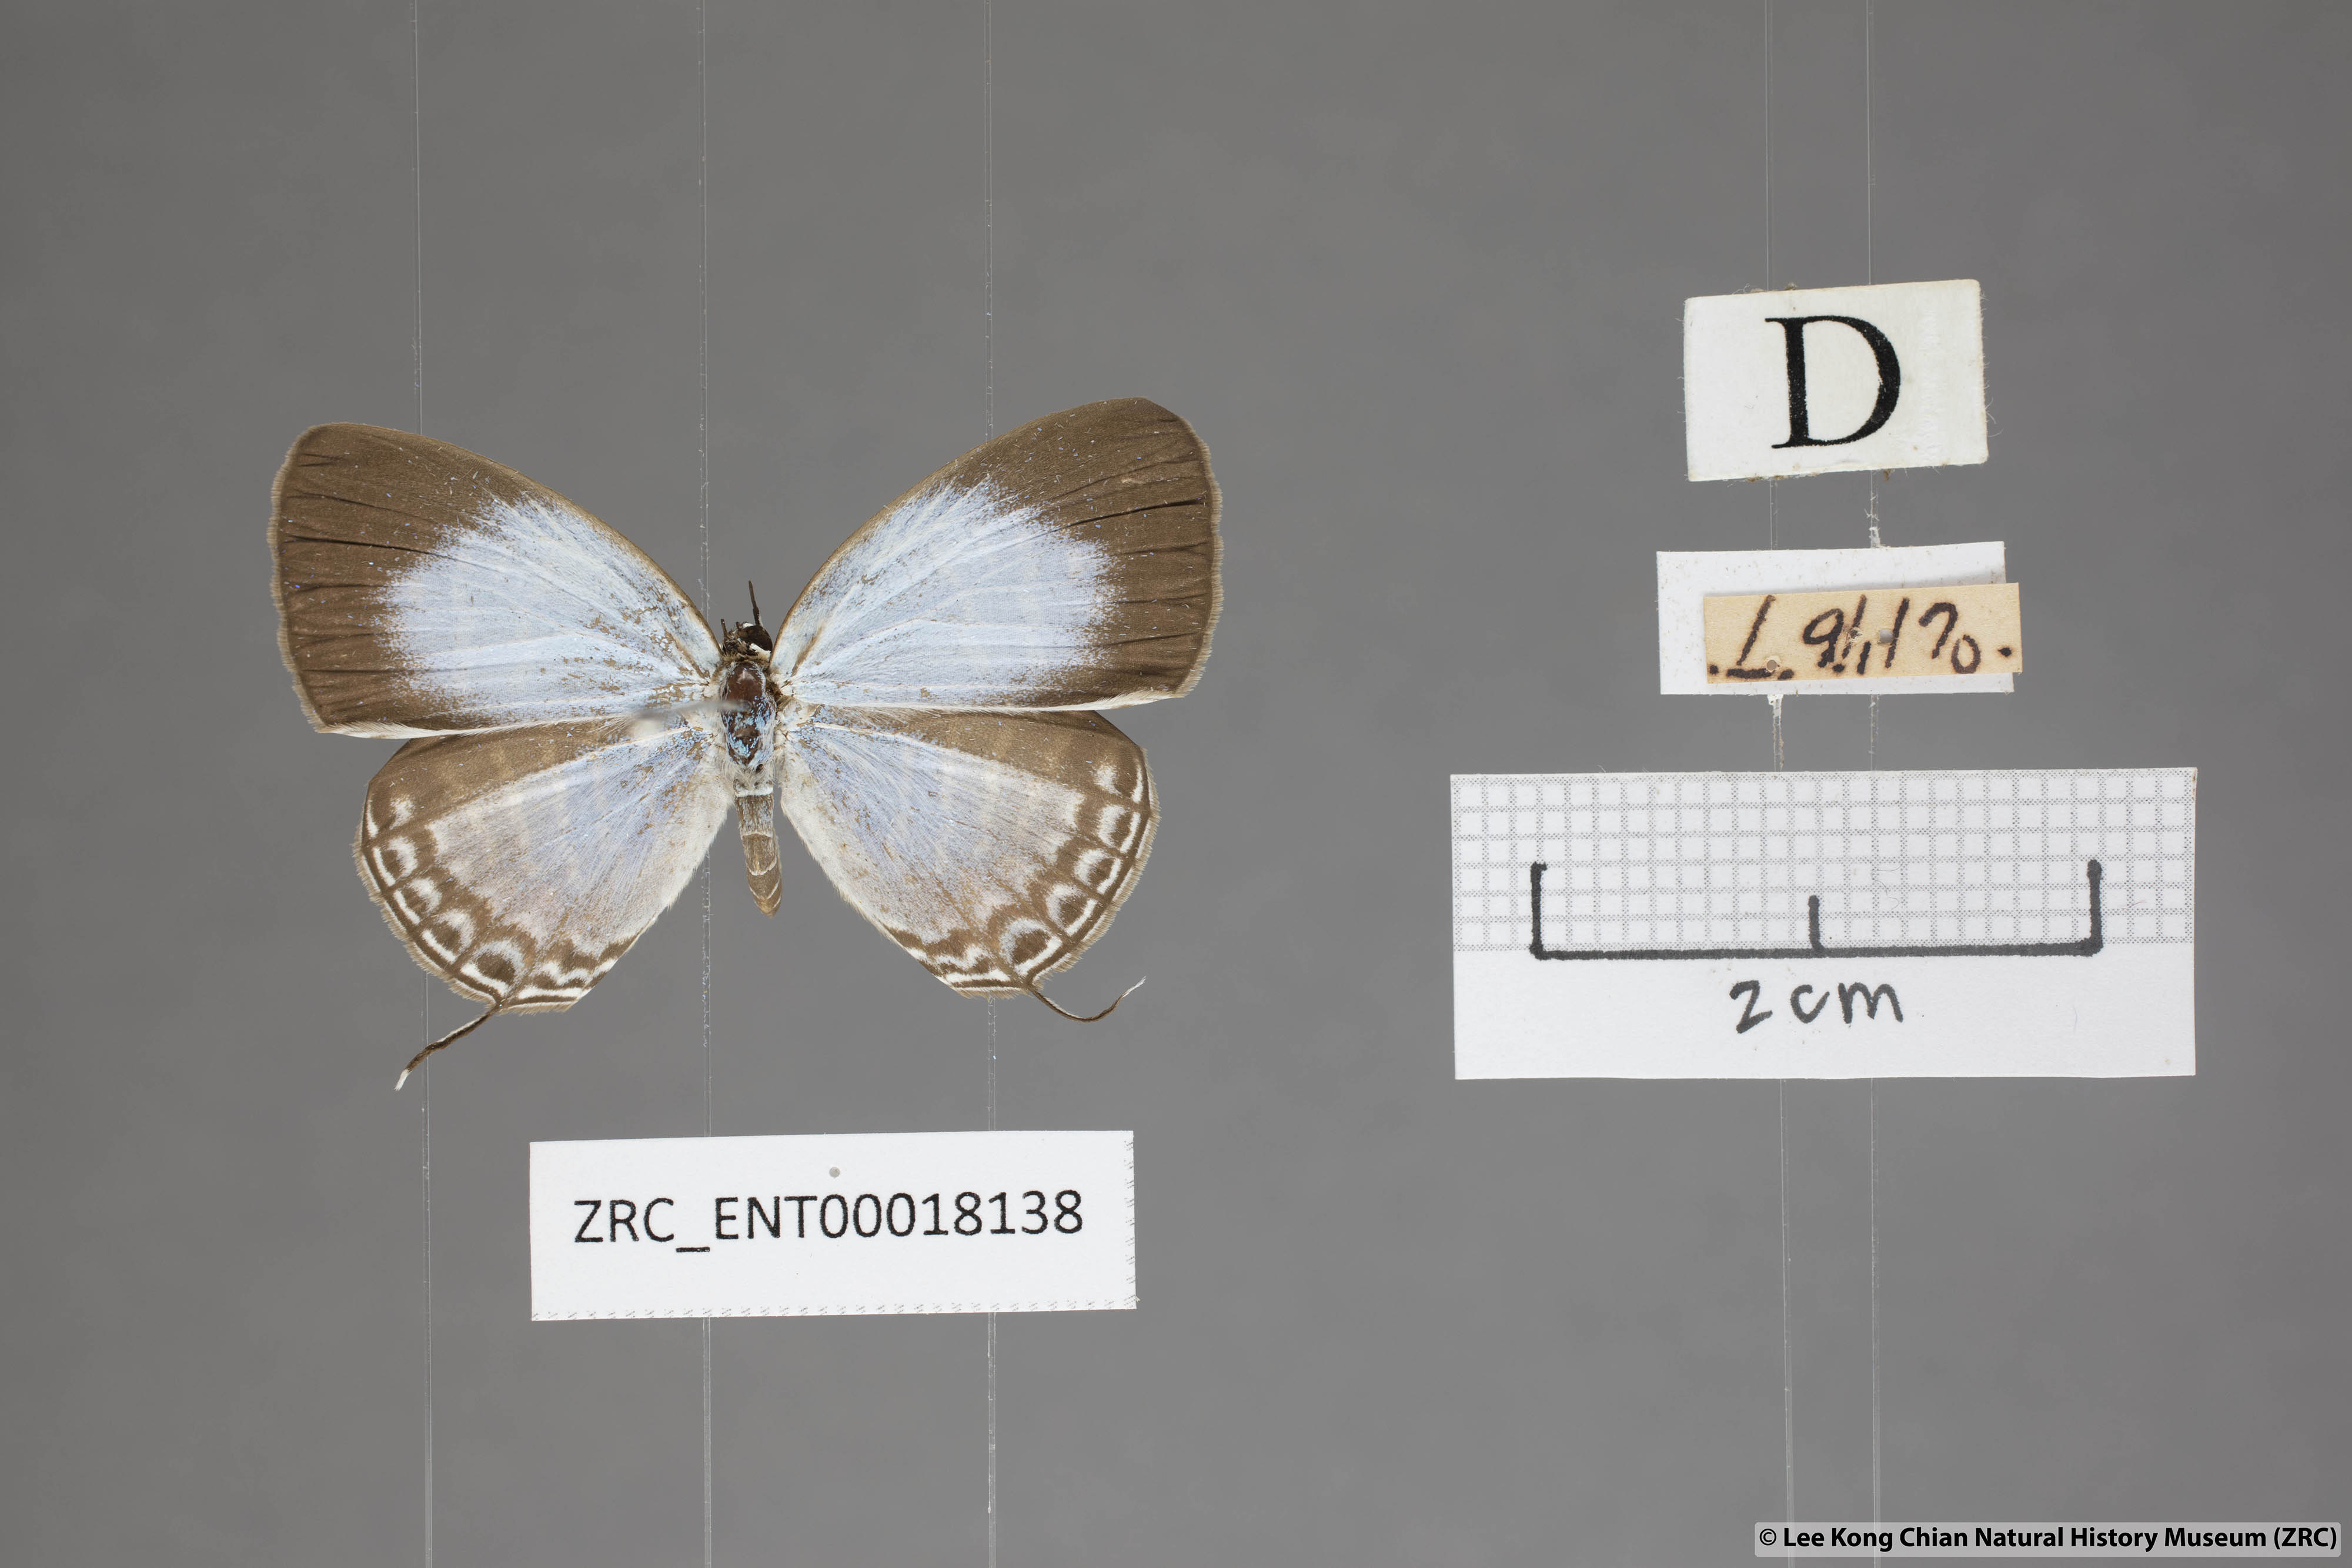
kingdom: Animalia
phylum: Arthropoda
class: Insecta
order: Lepidoptera
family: Lycaenidae
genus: Jamides
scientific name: Jamides malaccanus
